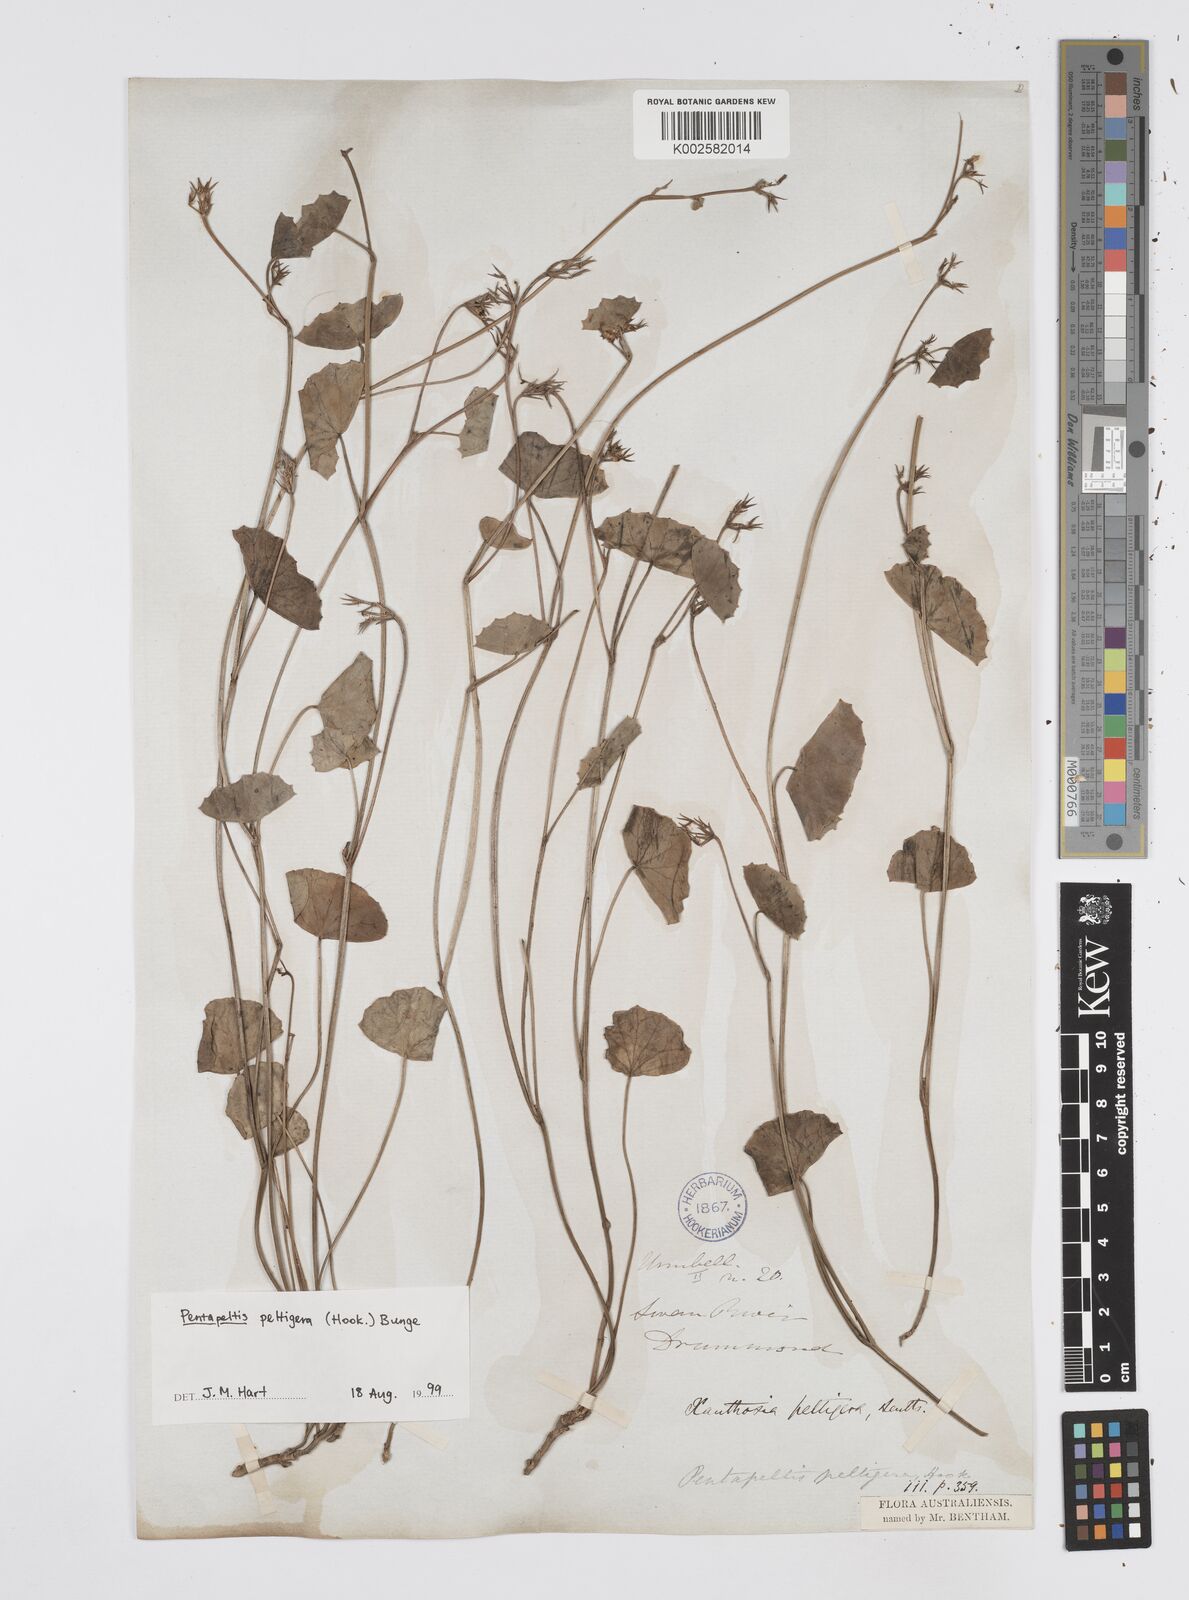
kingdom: Plantae
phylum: Tracheophyta
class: Magnoliopsida
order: Apiales
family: Apiaceae
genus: Pentapeltis
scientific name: Pentapeltis peltigera
